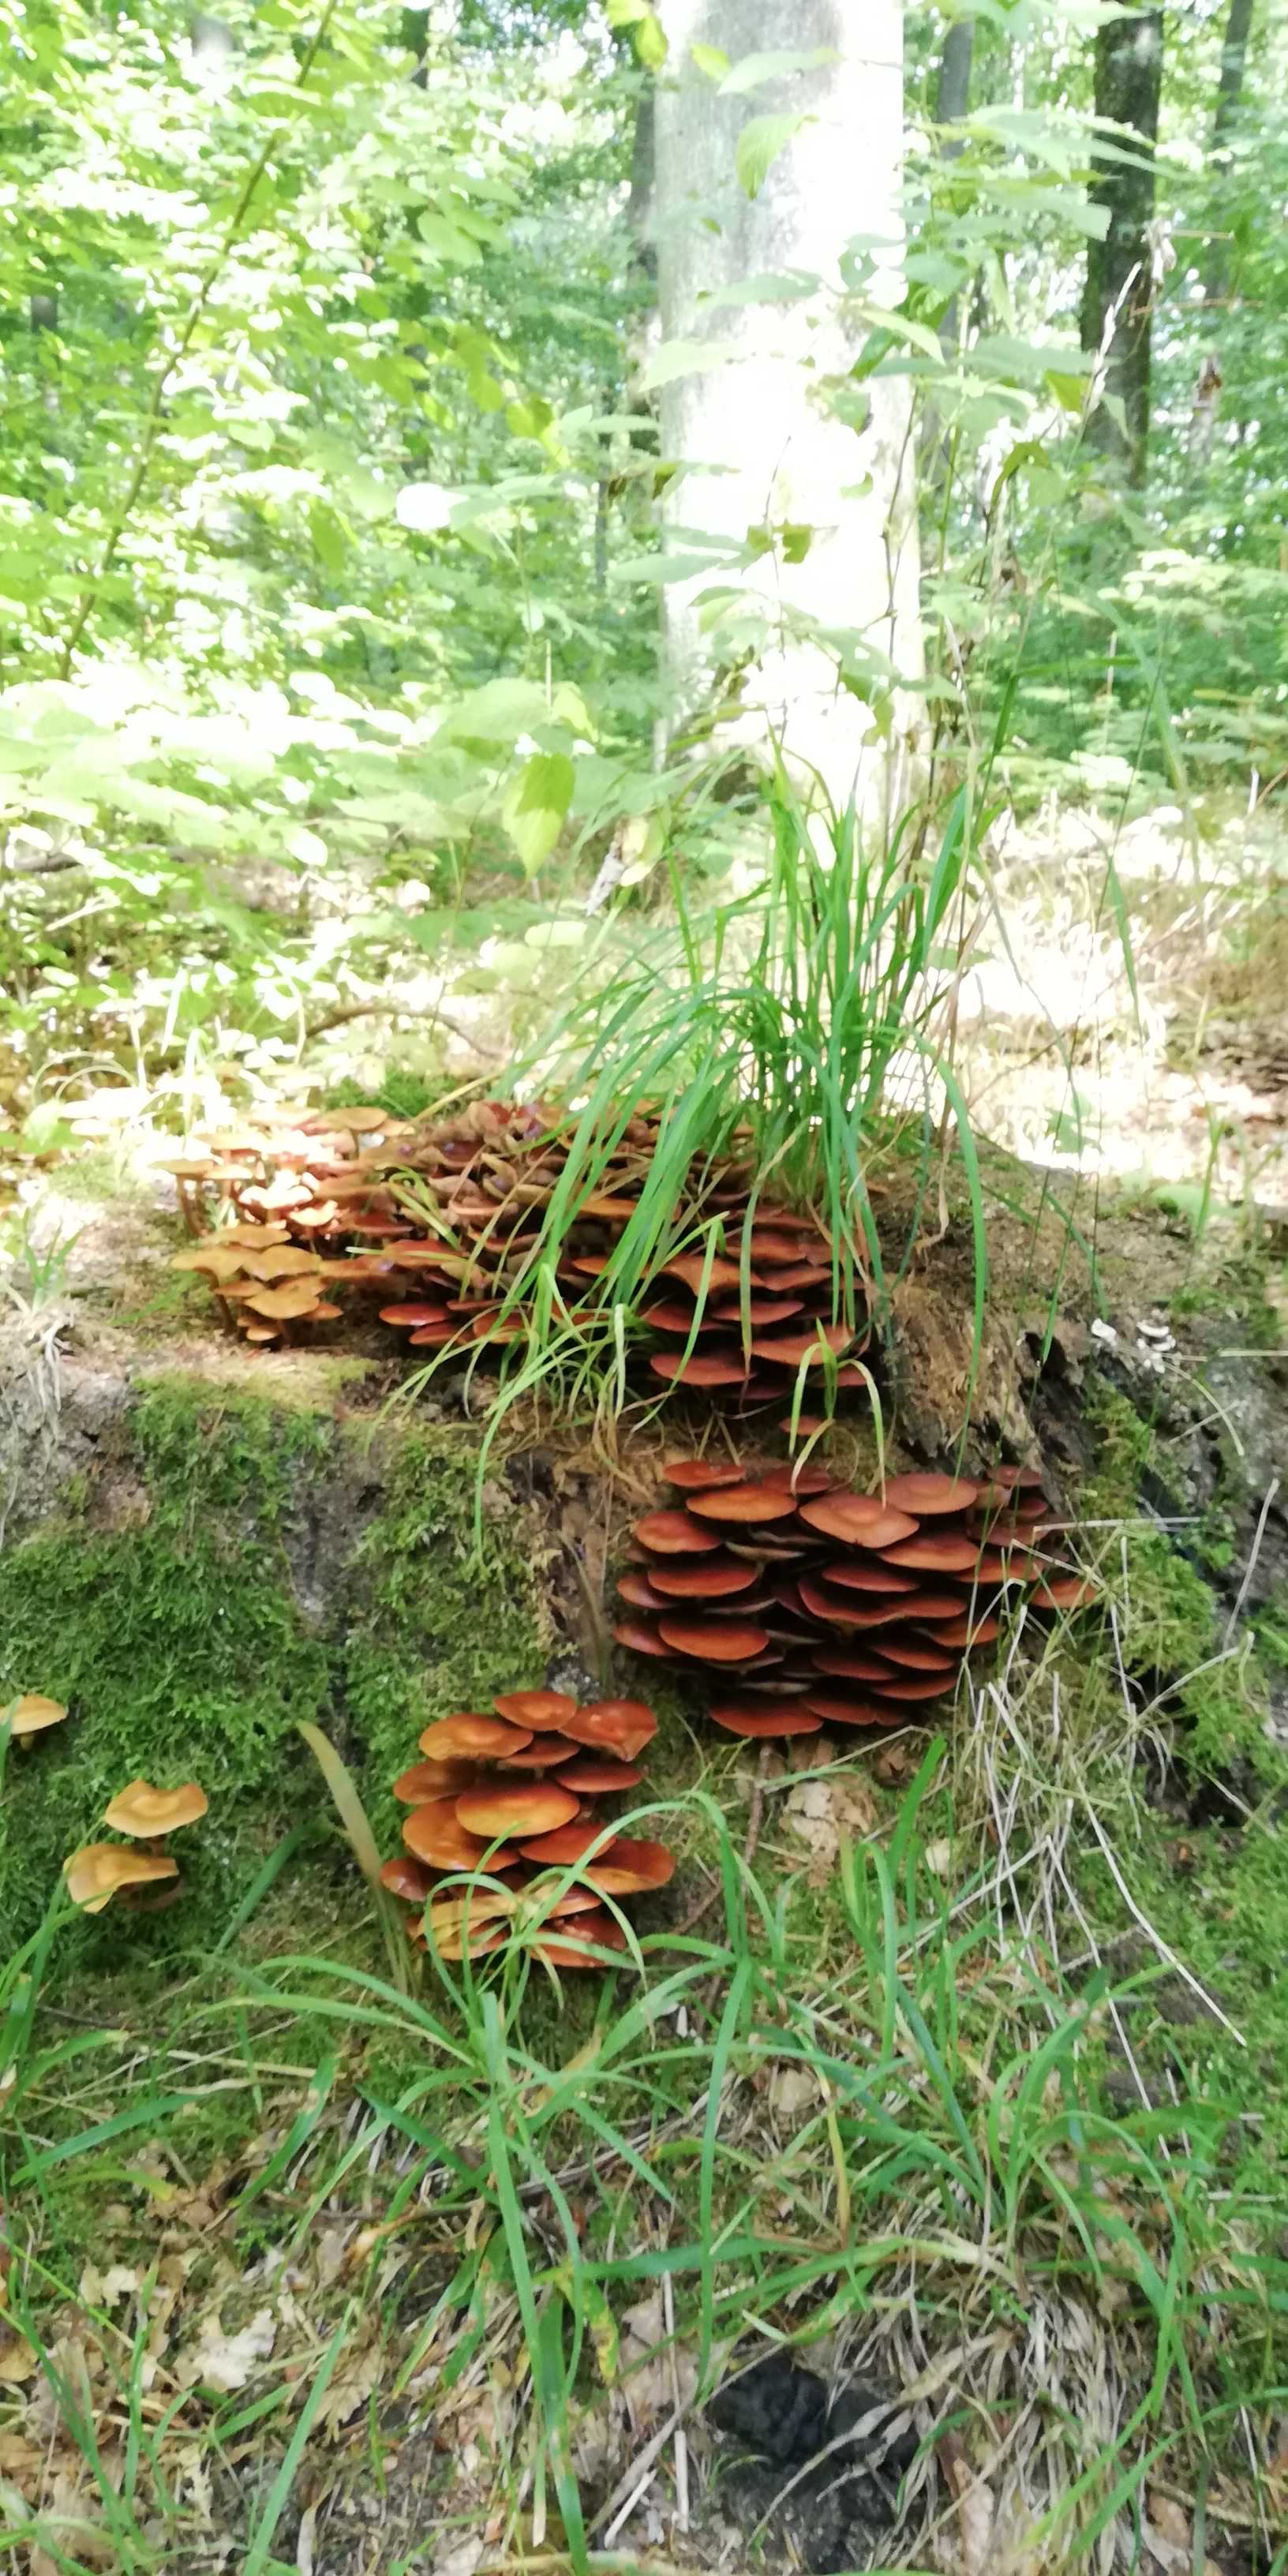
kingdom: Fungi
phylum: Basidiomycota
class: Agaricomycetes
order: Agaricales
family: Strophariaceae
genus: Kuehneromyces
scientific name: Kuehneromyces mutabilis
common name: foranderlig skælhat
